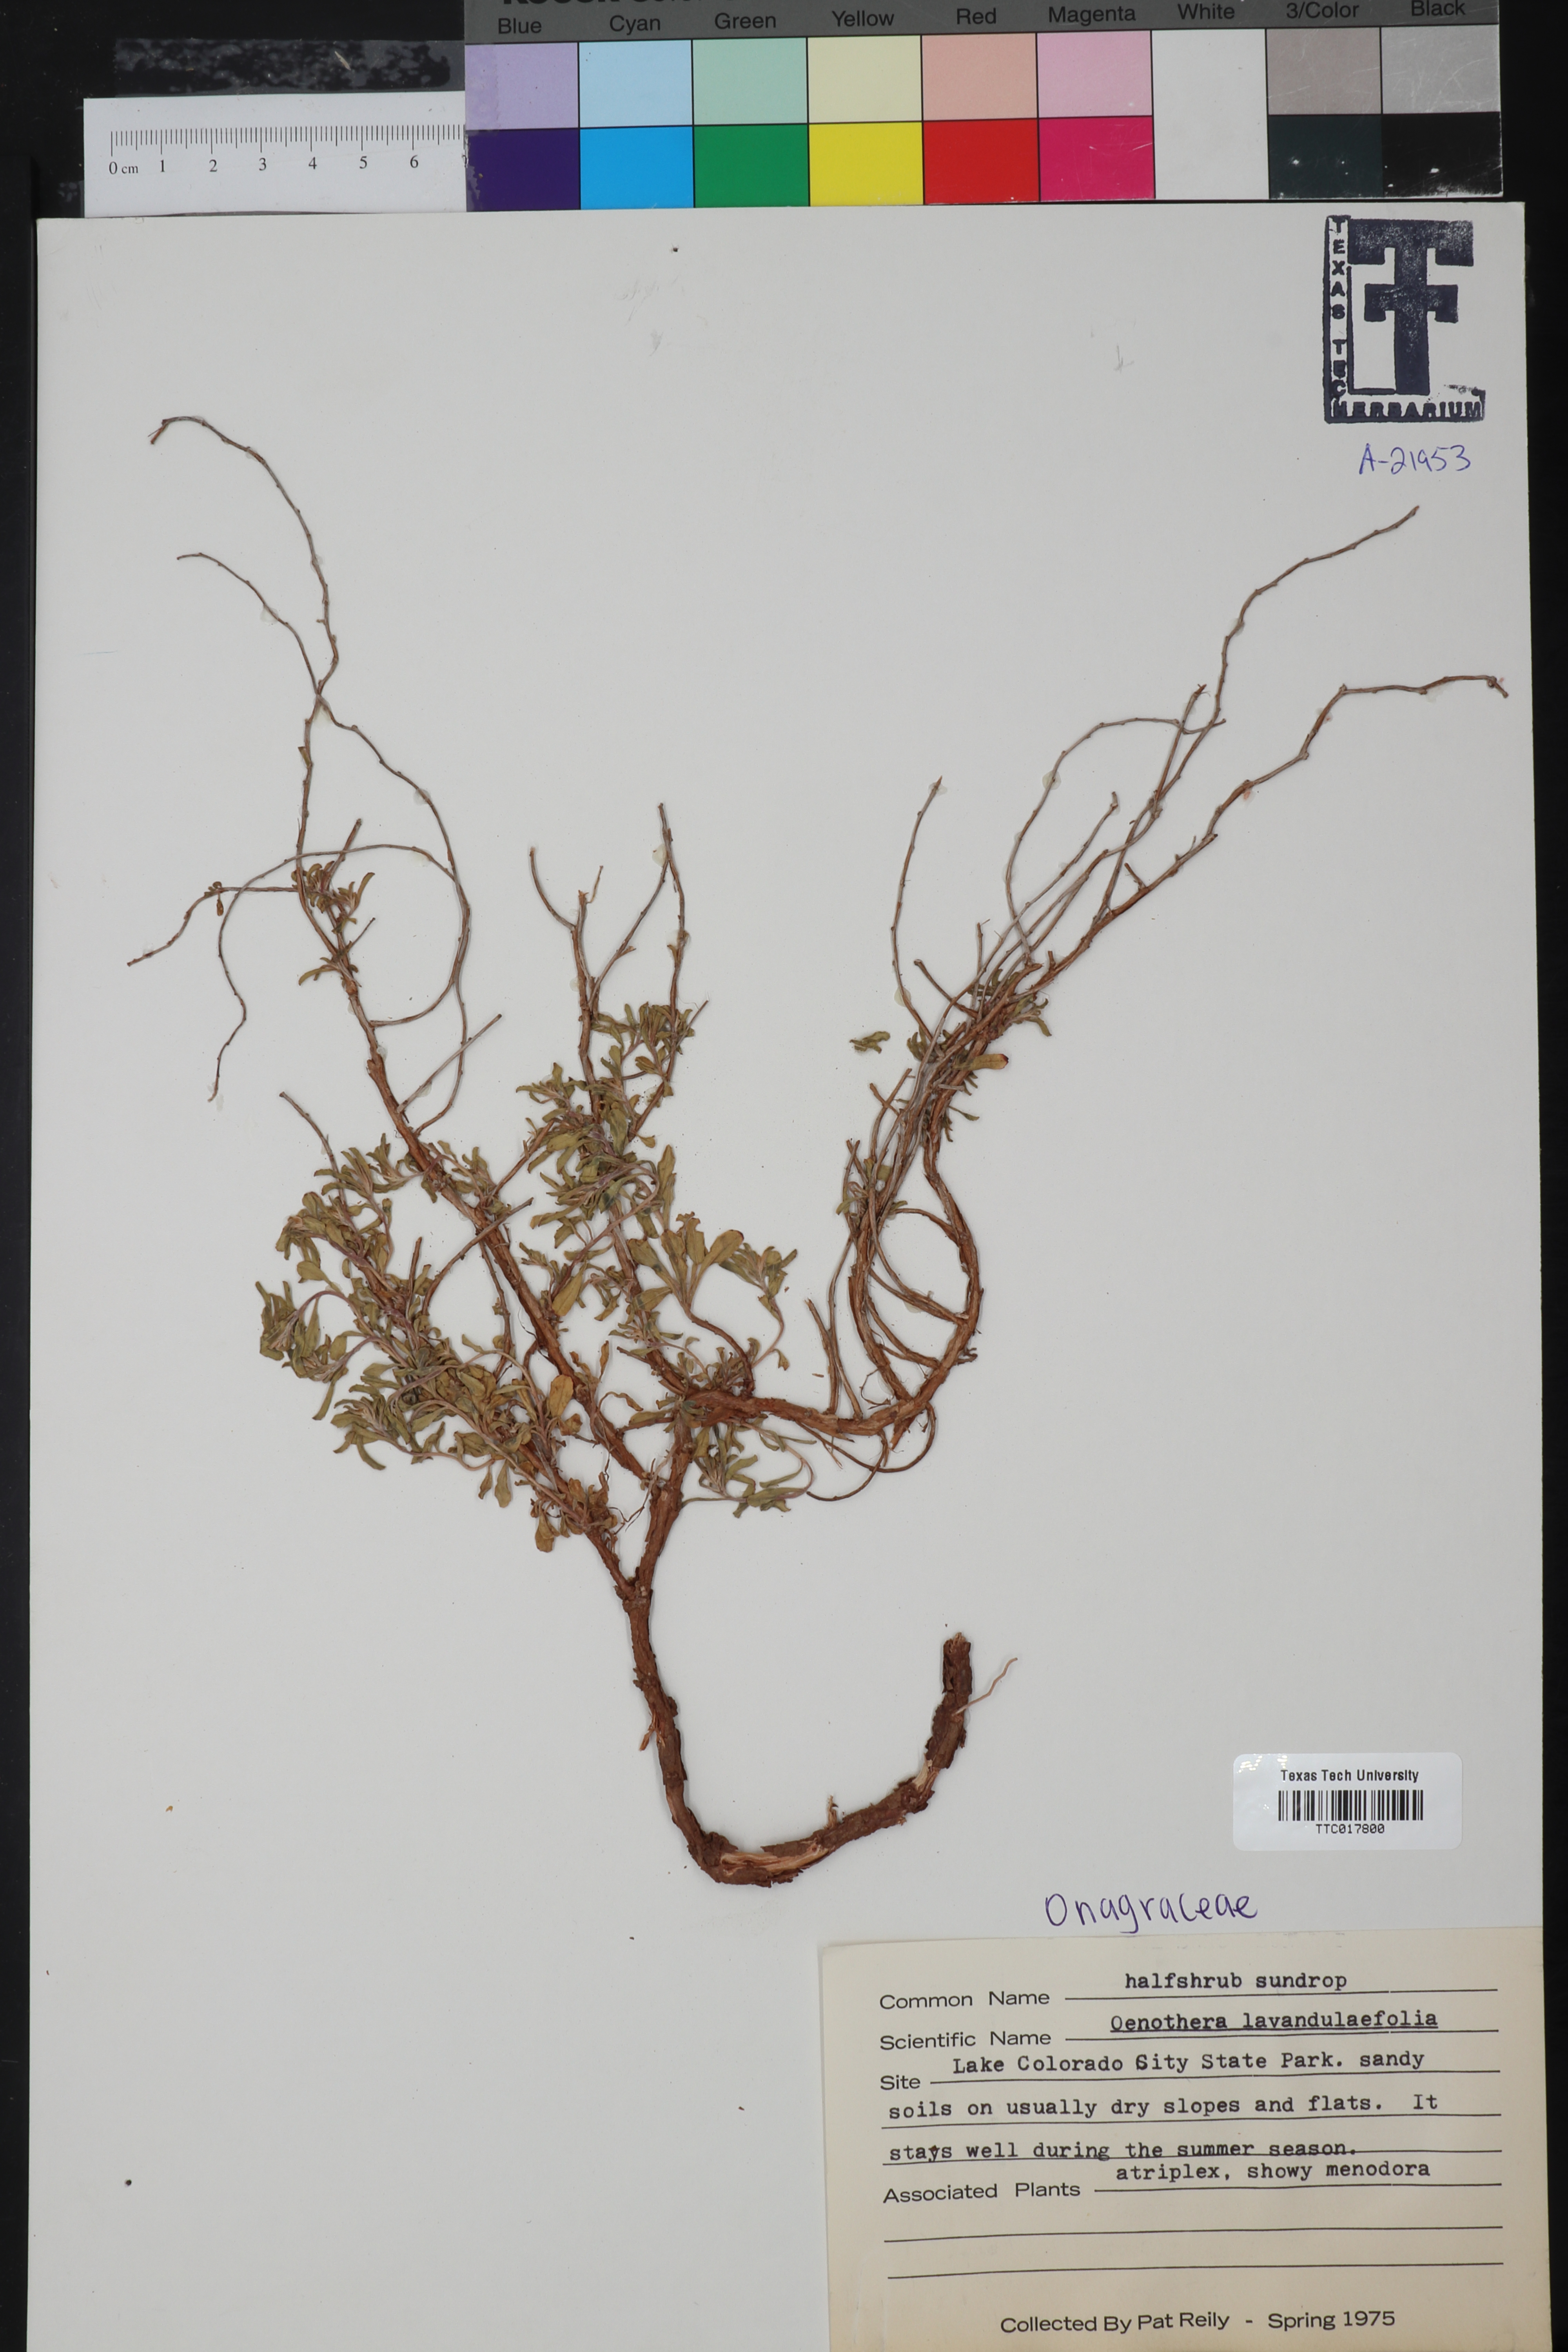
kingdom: Plantae
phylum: Tracheophyta
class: Magnoliopsida
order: Myrtales
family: Onagraceae
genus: Oenothera
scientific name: Oenothera lavandulifolia
